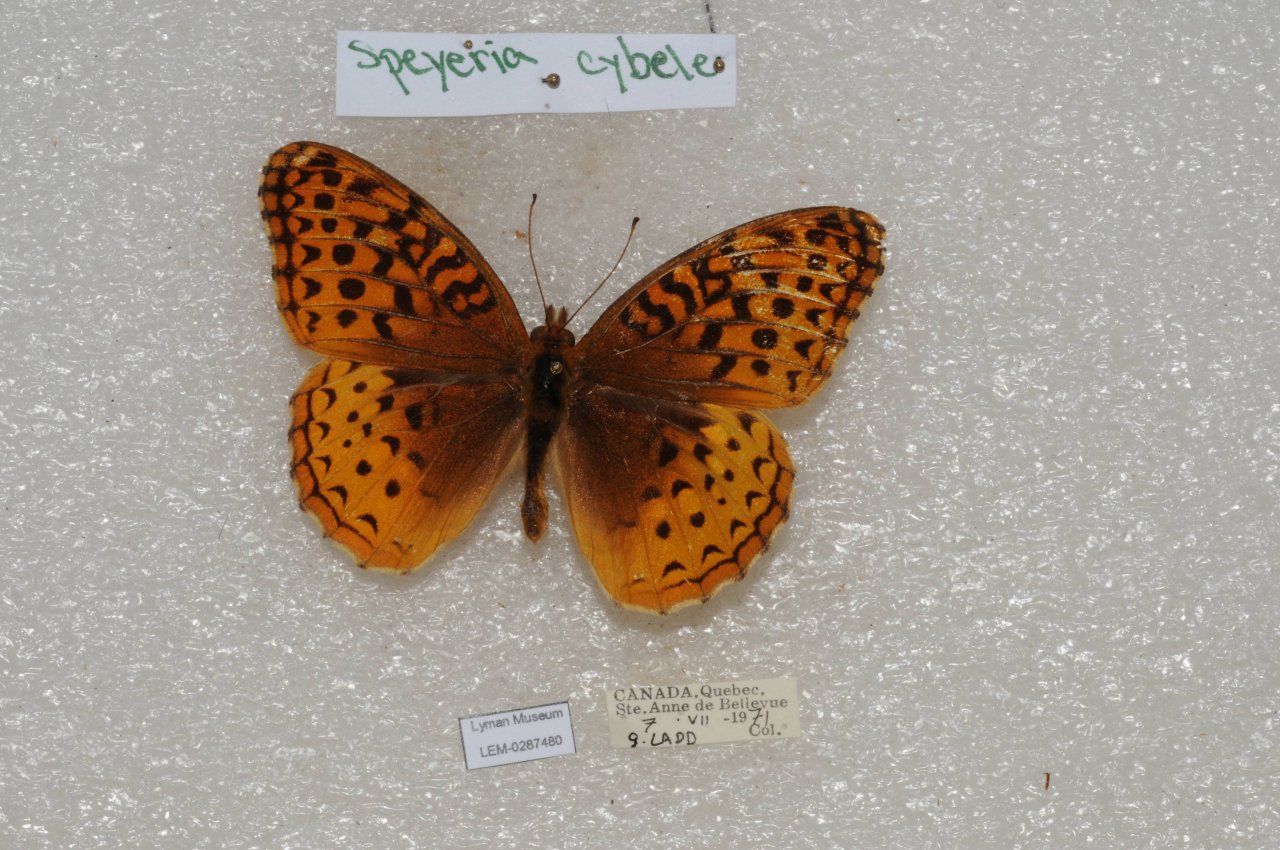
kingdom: Animalia
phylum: Arthropoda
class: Insecta
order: Lepidoptera
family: Nymphalidae
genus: Speyeria
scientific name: Speyeria cybele
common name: Great Spangled Fritillary
